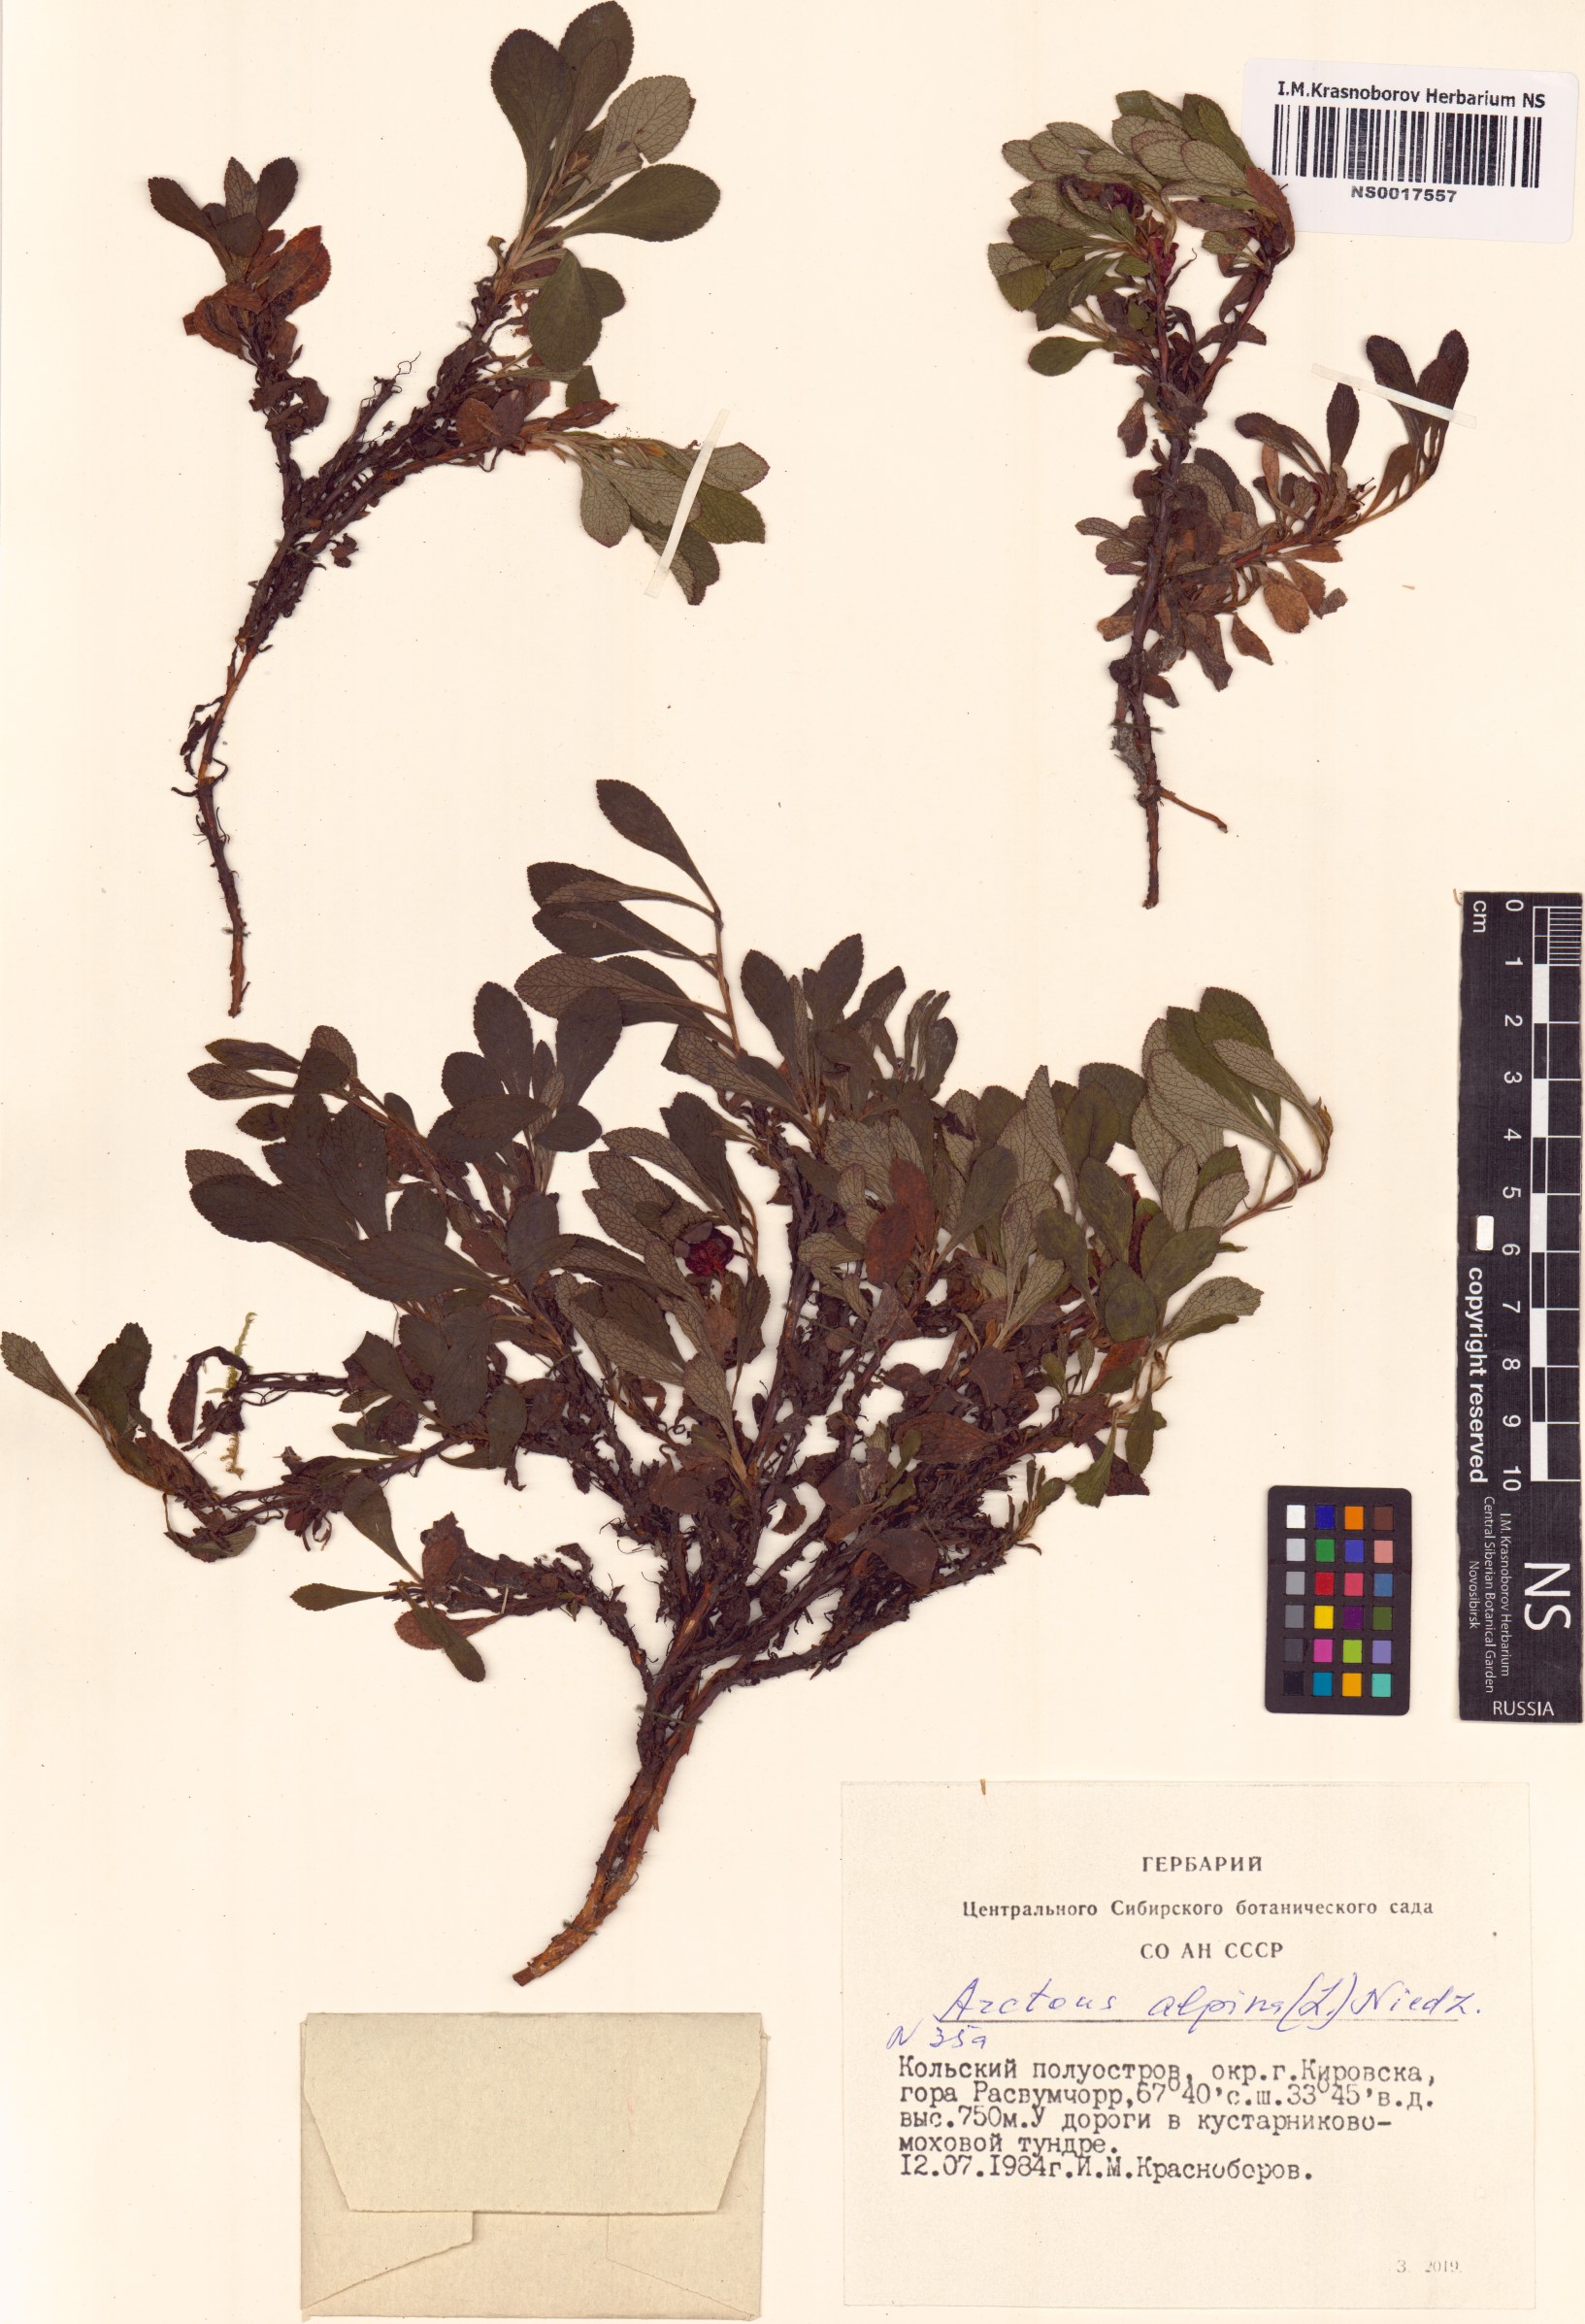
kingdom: Plantae
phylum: Tracheophyta
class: Magnoliopsida
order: Ericales
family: Ericaceae
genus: Arctostaphylos
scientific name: Arctostaphylos alpinus
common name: Alpine bearberry
